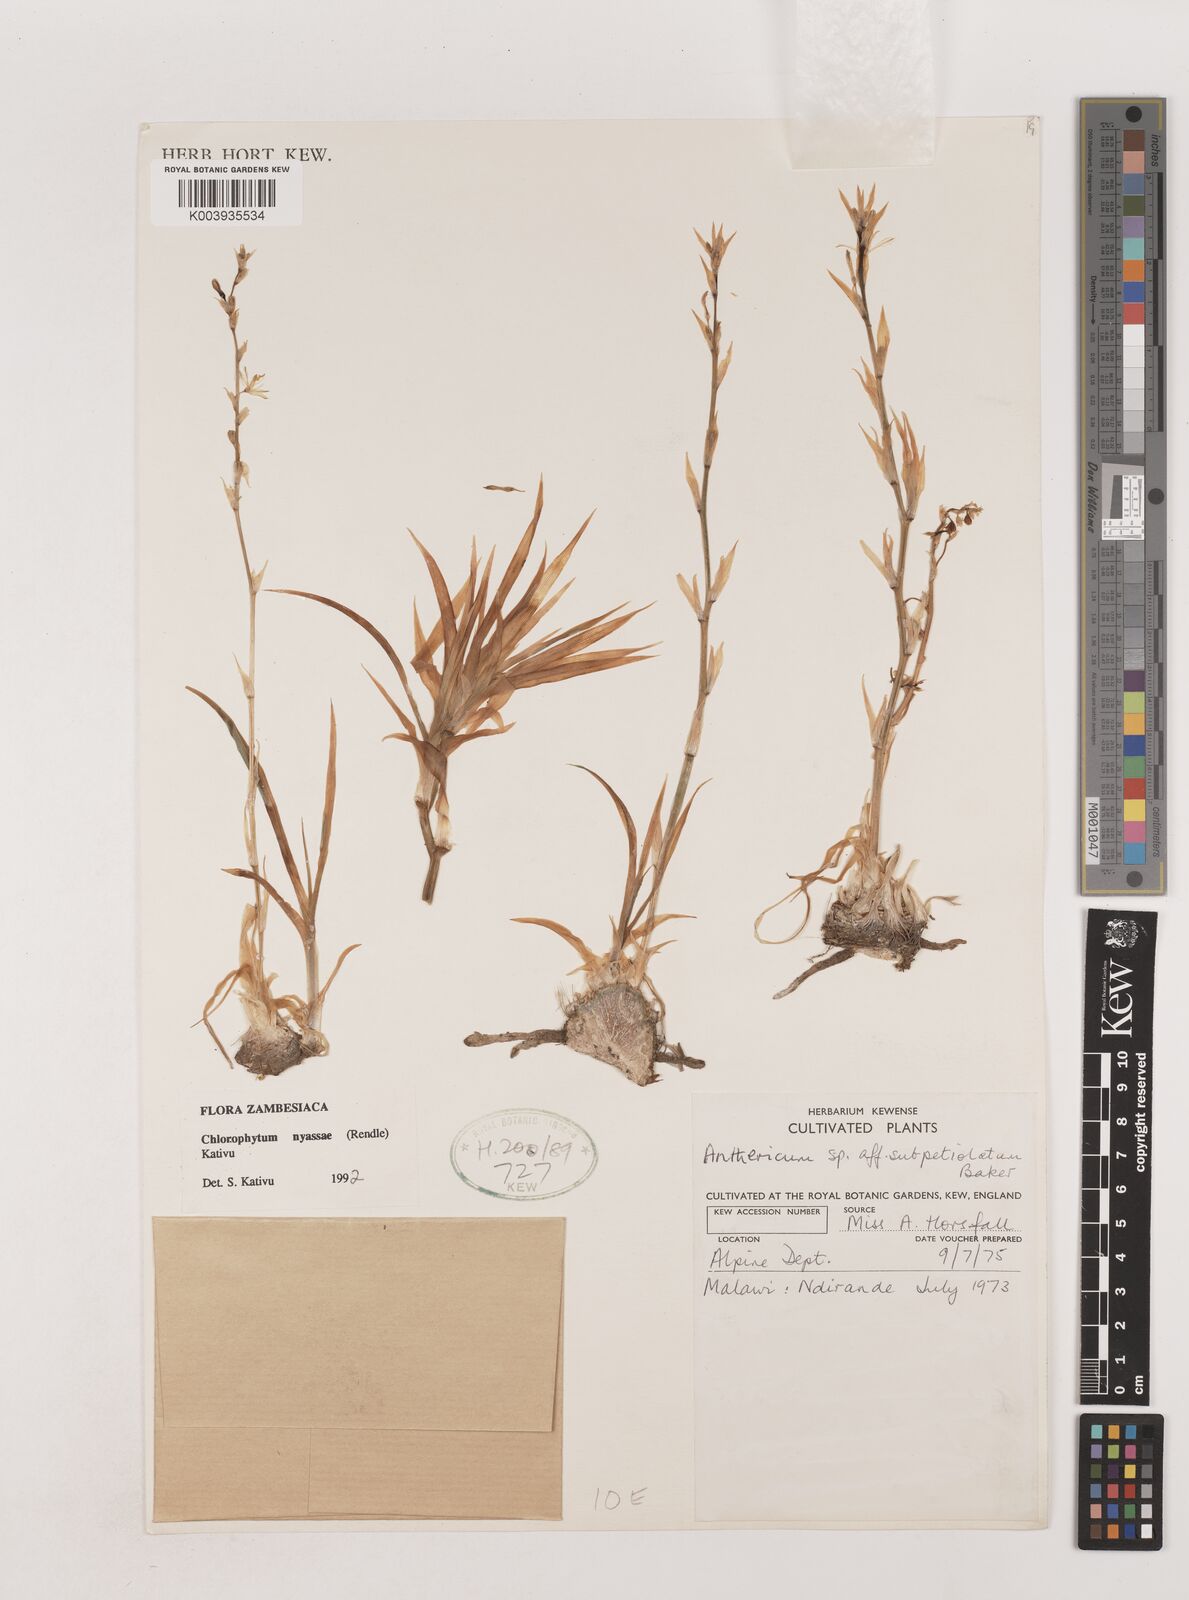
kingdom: Plantae
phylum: Tracheophyta
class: Liliopsida
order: Asparagales
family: Asparagaceae
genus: Chlorophytum
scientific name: Chlorophytum nyasae
